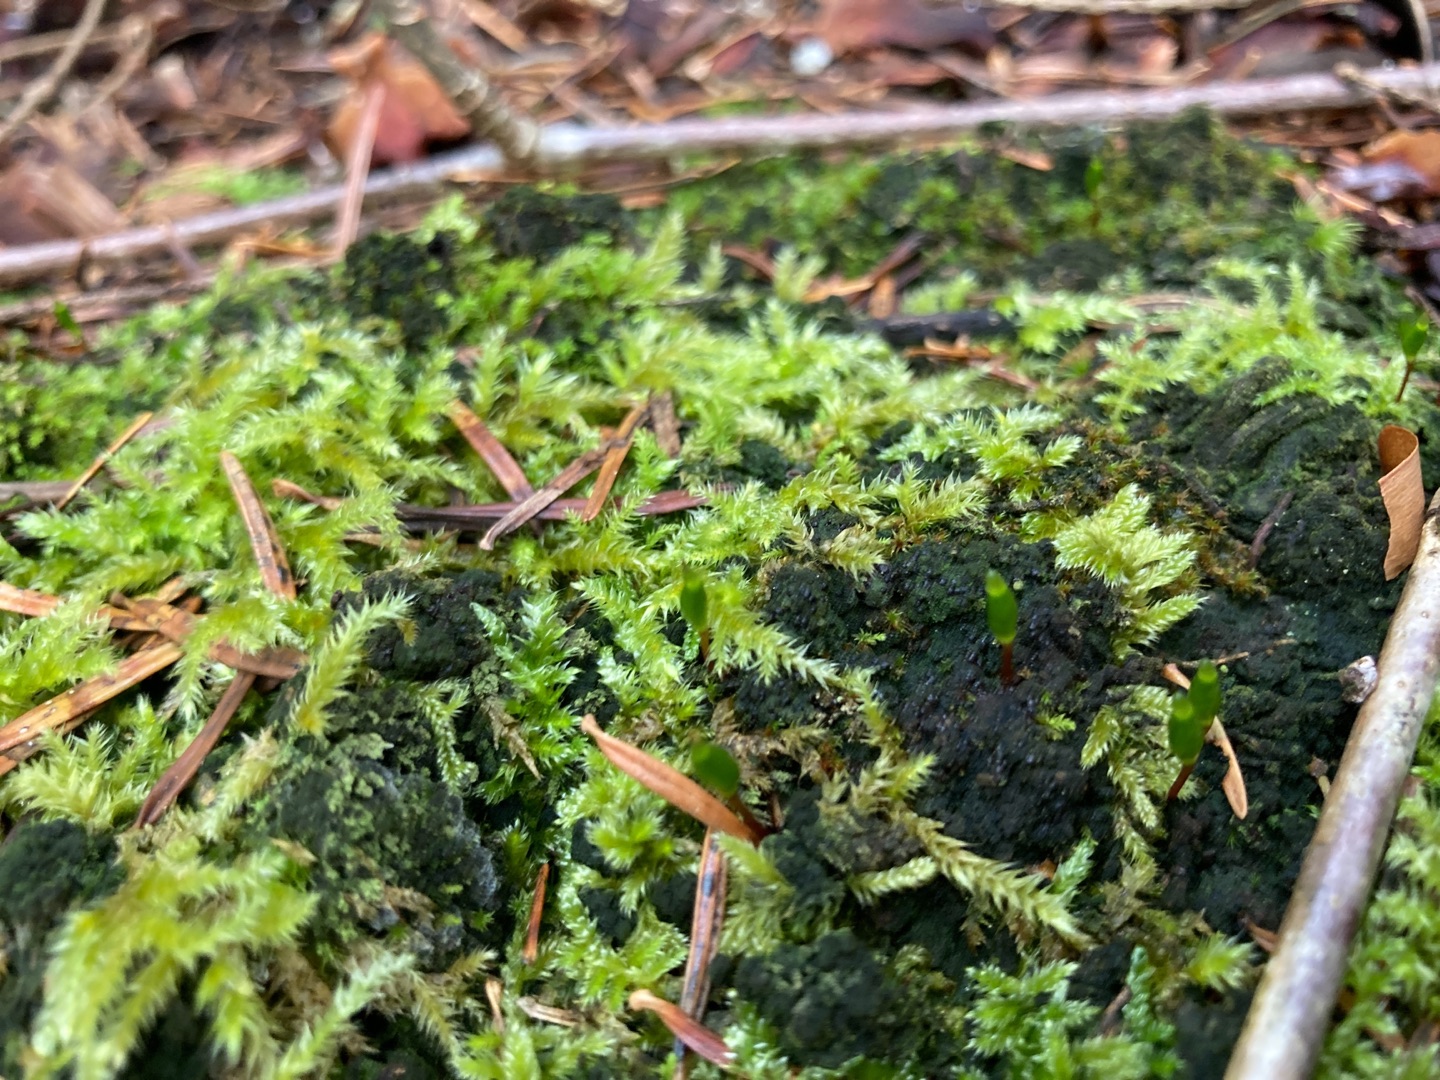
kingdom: Plantae
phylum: Bryophyta
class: Bryopsida
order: Buxbaumiales
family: Buxbaumiaceae
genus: Buxbaumia
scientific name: Buxbaumia viridis
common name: Grøn buxbaumia
